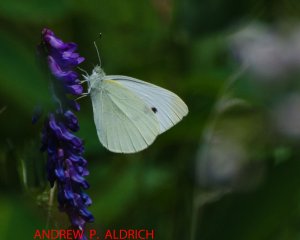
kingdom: Animalia
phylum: Arthropoda
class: Insecta
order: Lepidoptera
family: Pieridae
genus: Pieris
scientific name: Pieris rapae
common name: Cabbage White
